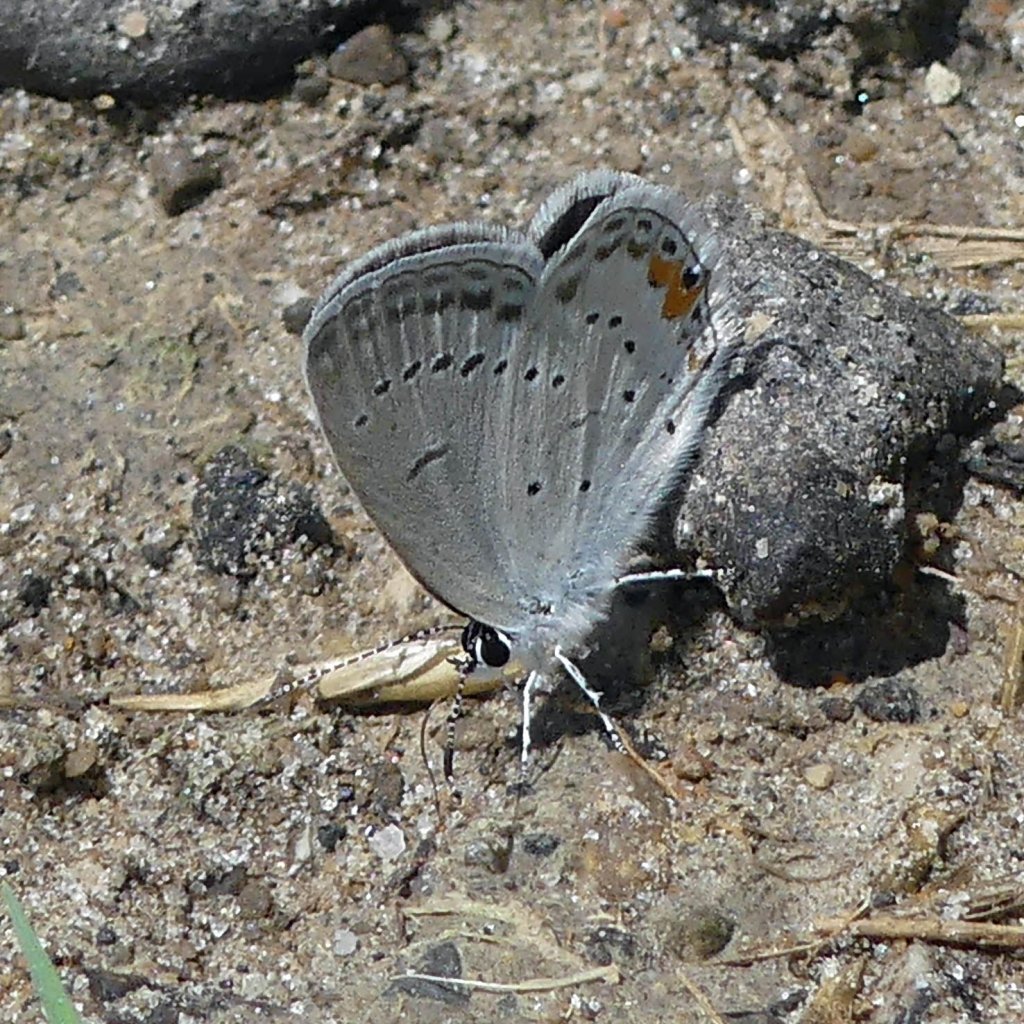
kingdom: Animalia
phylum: Arthropoda
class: Insecta
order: Lepidoptera
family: Lycaenidae
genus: Elkalyce
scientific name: Elkalyce comyntas
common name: Eastern Tailed-Blue
